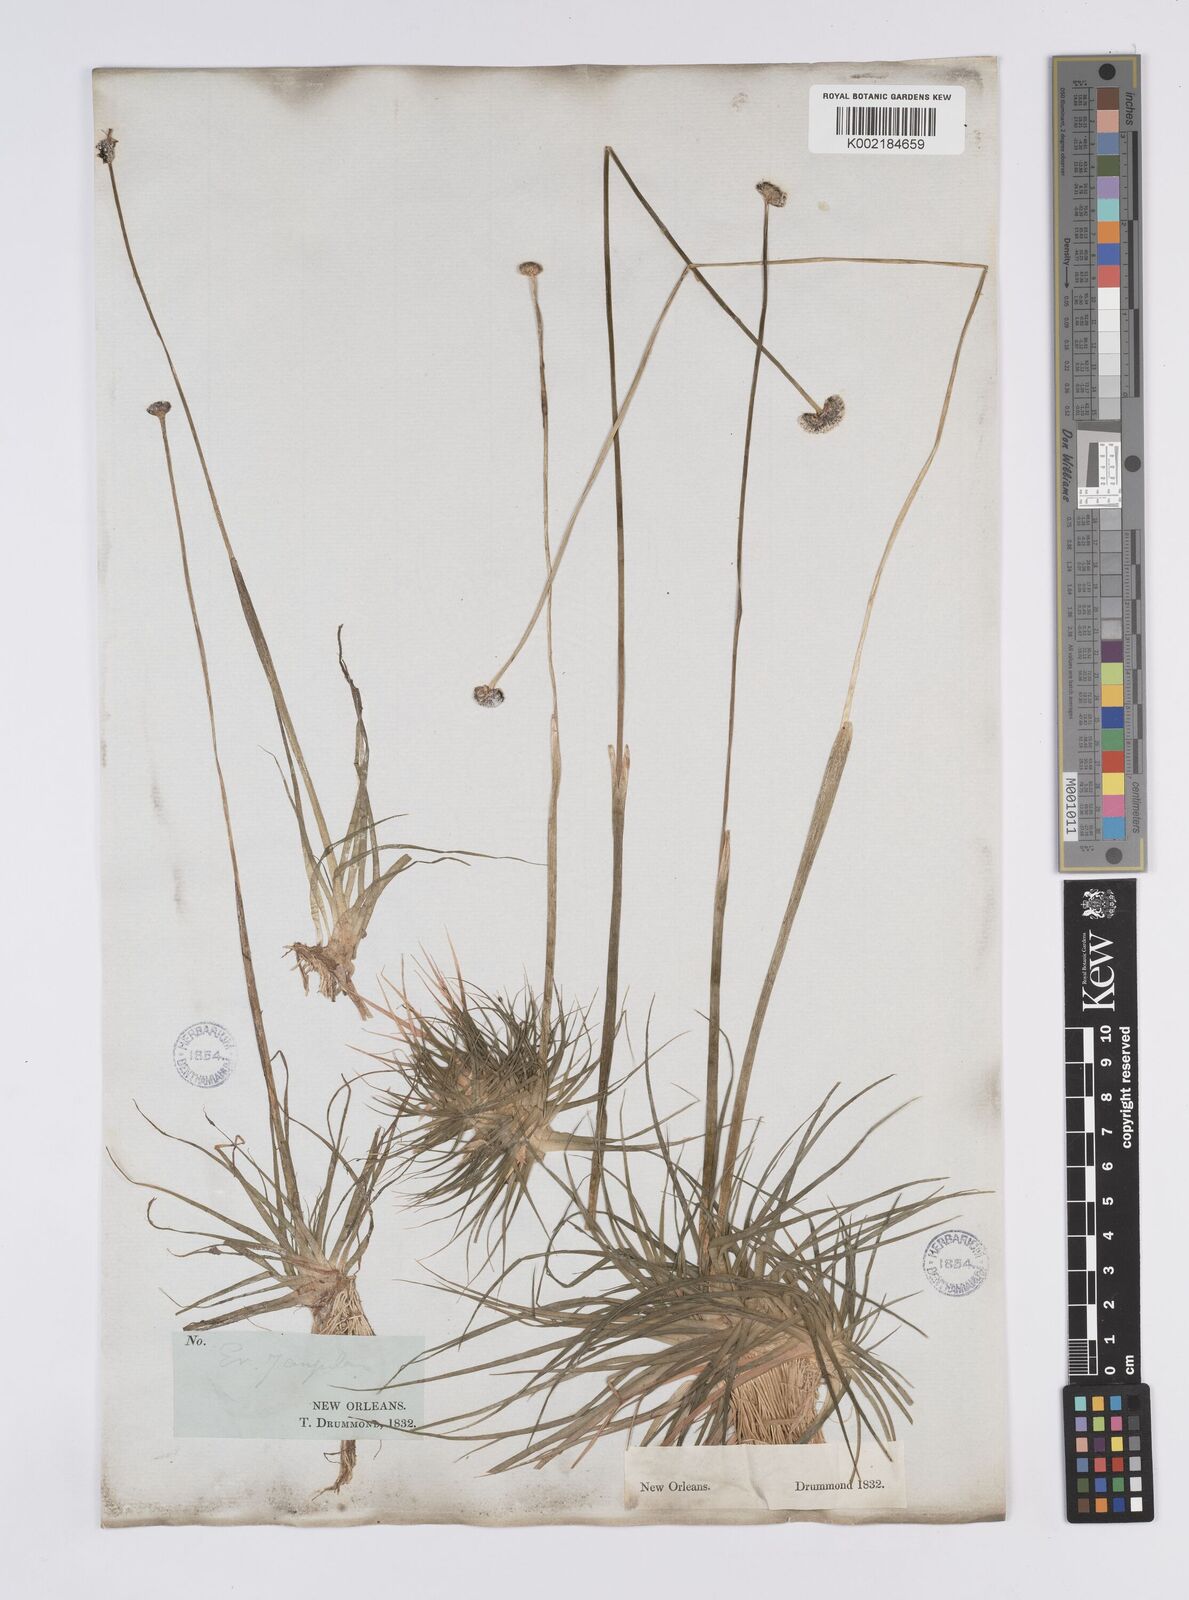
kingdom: Plantae
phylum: Tracheophyta
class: Liliopsida
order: Poales
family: Eriocaulaceae
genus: Eriocaulon
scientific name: Eriocaulon compressum
